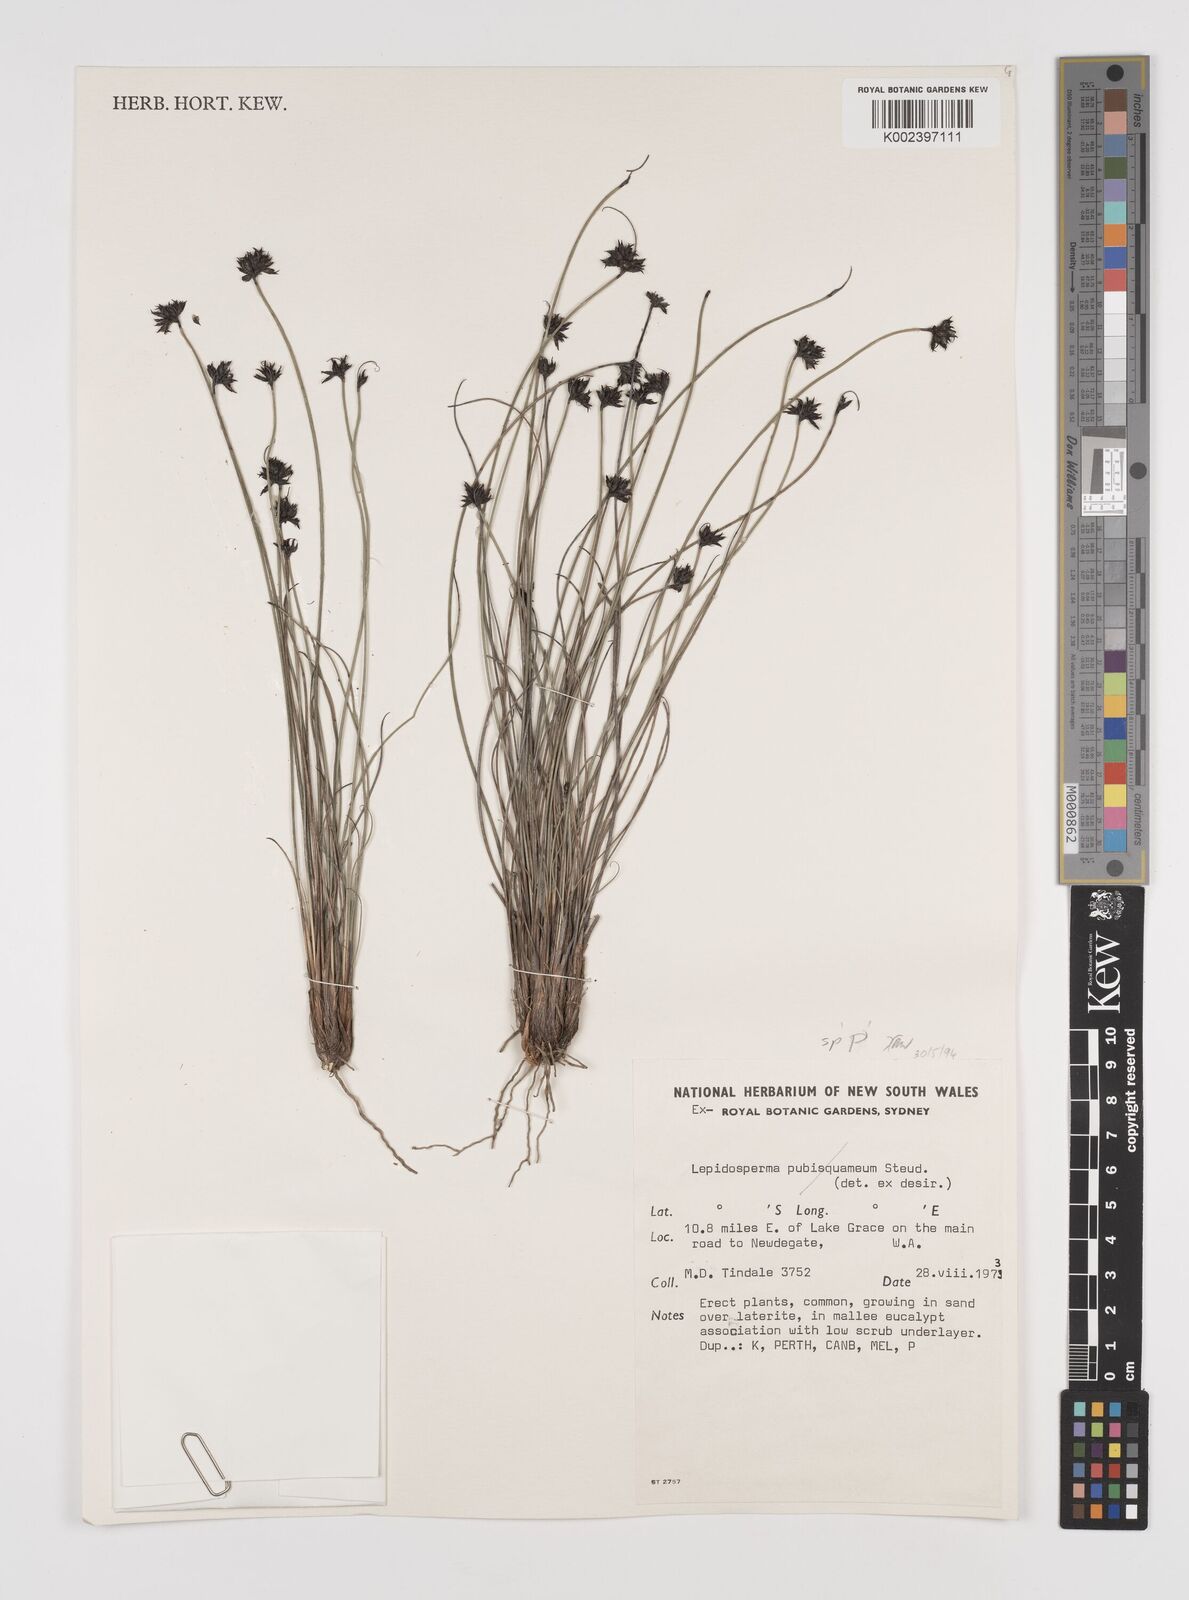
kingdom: Plantae
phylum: Tracheophyta
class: Liliopsida
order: Poales
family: Cyperaceae
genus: Lepidosperma
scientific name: Lepidosperma tenue
